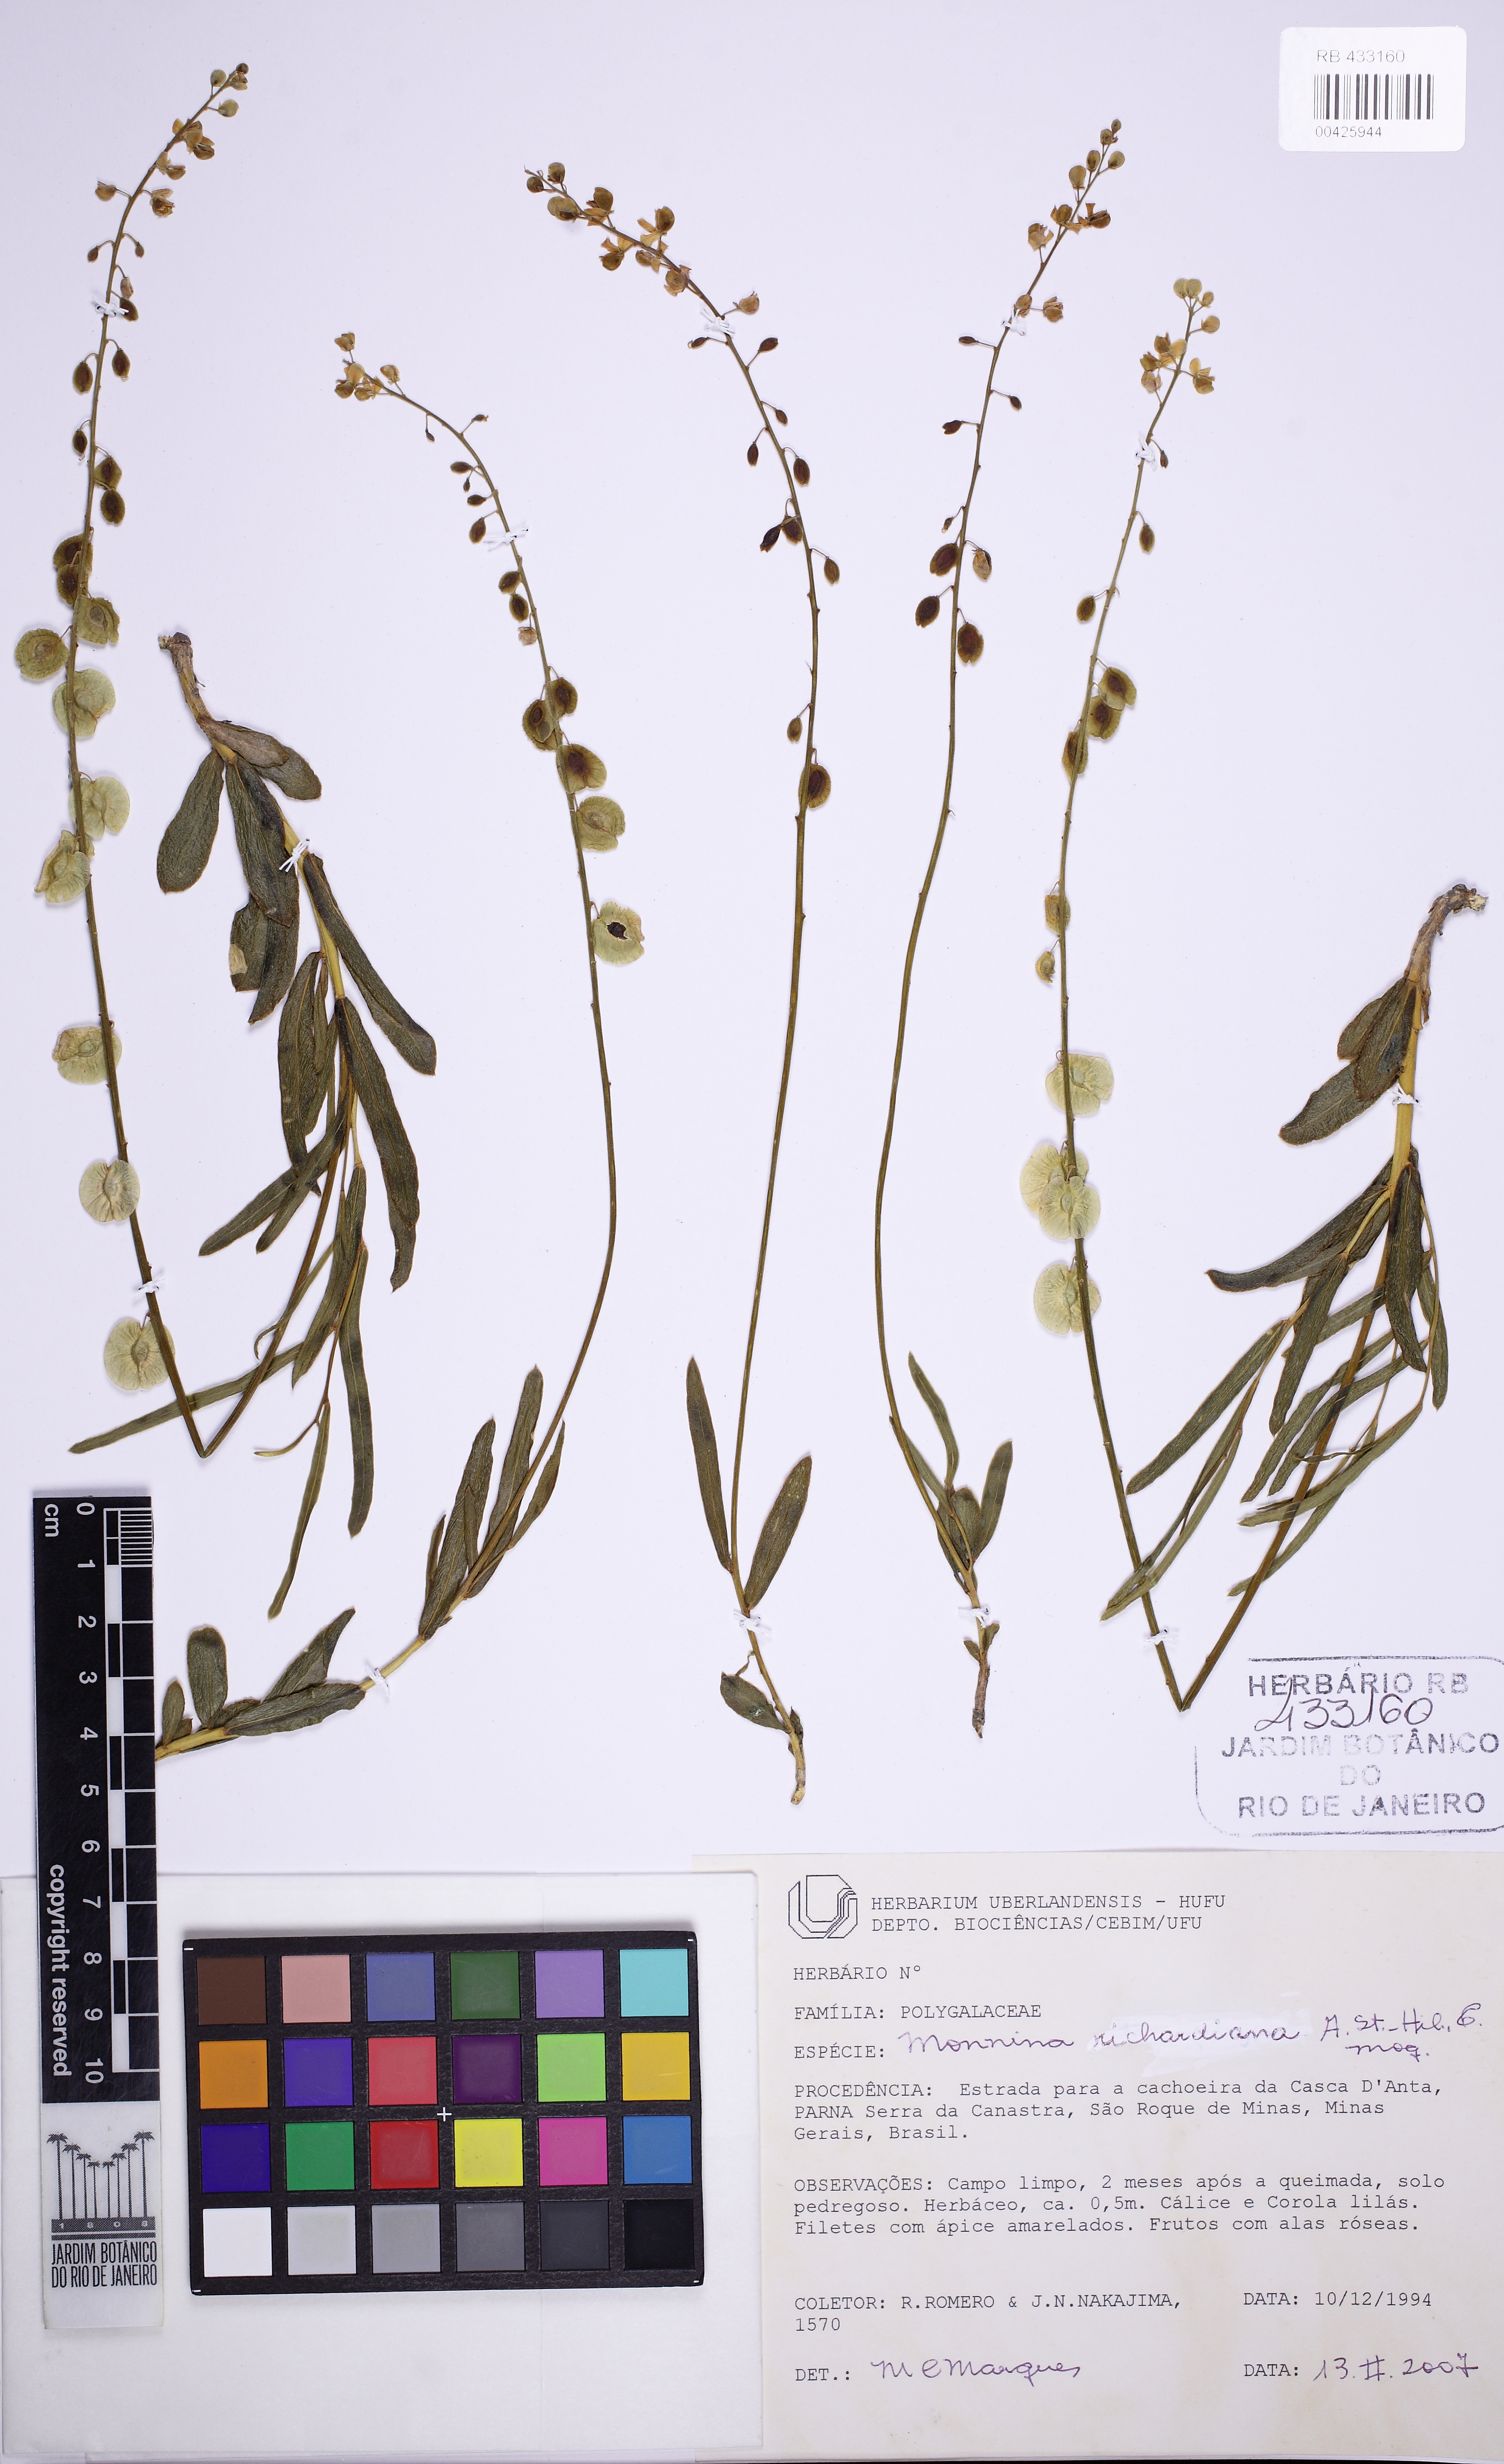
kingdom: Plantae
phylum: Tracheophyta
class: Magnoliopsida
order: Fabales
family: Polygalaceae
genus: Monnina
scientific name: Monnina richardiana
